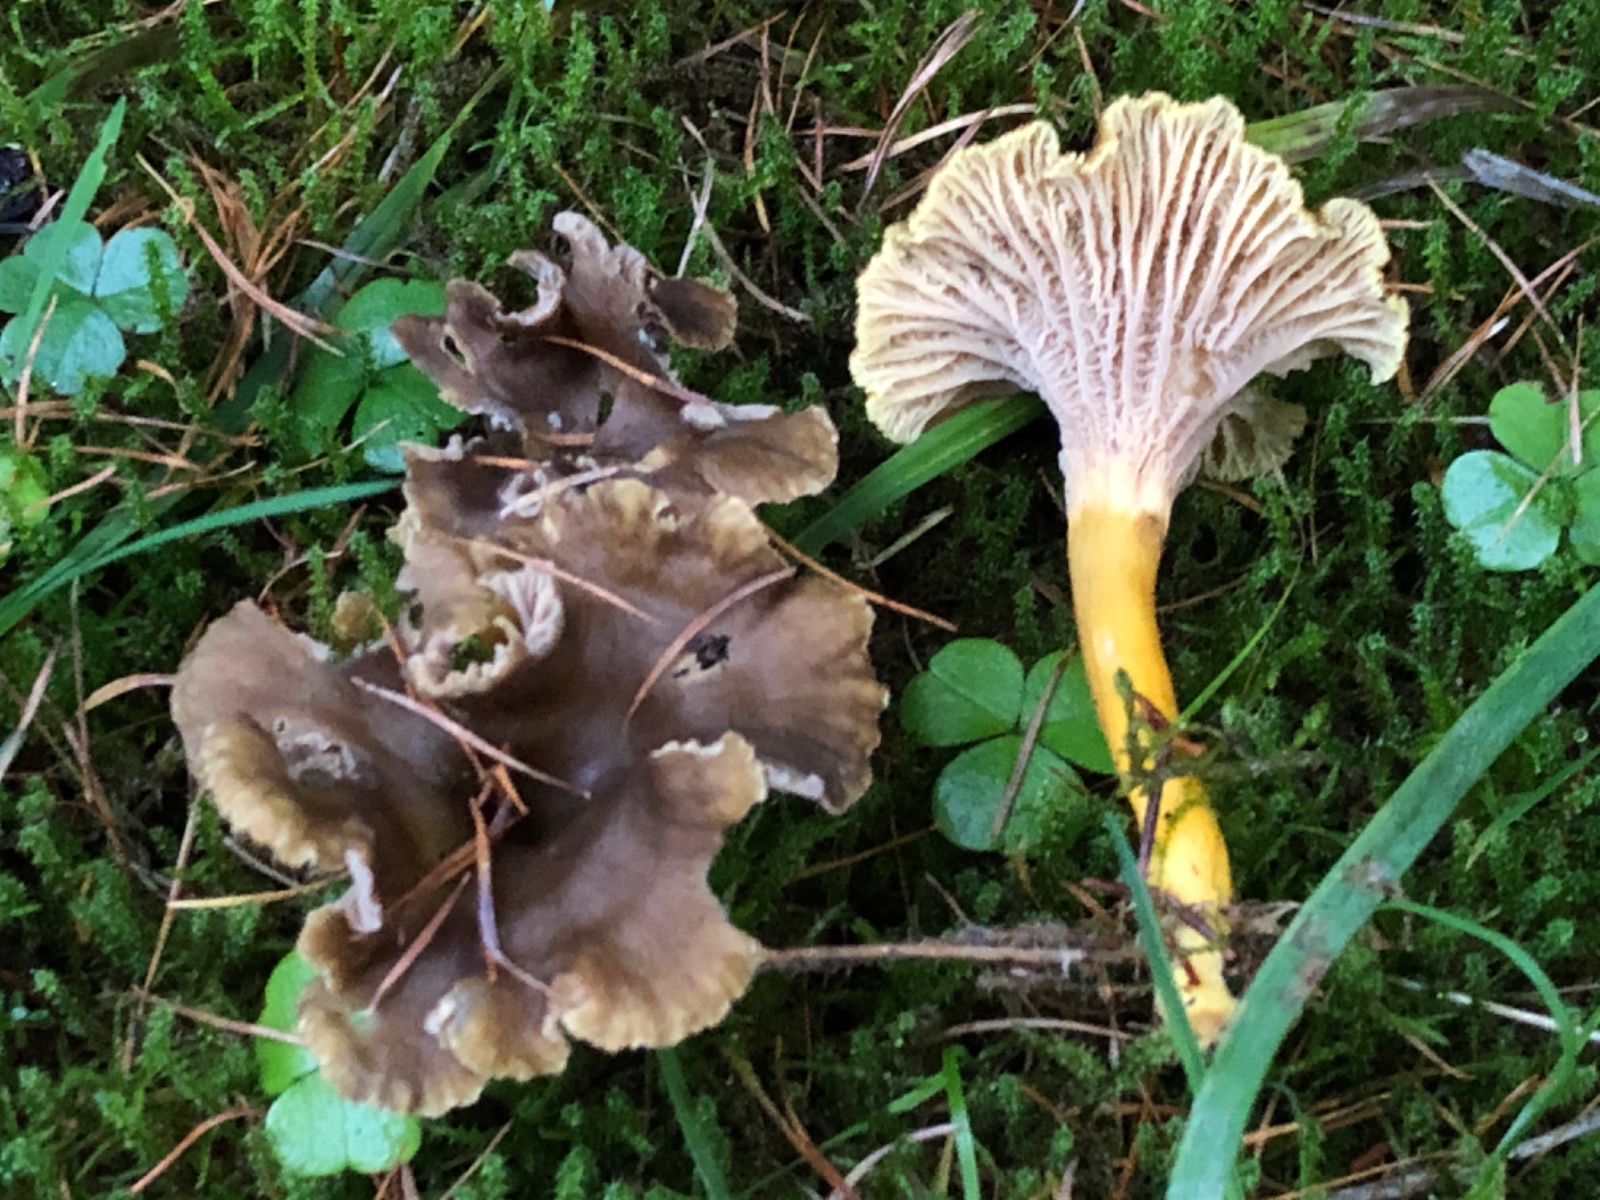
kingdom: Fungi
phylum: Basidiomycota
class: Agaricomycetes
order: Cantharellales
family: Hydnaceae
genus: Craterellus
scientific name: Craterellus tubaeformis
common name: tragt-kantarel
